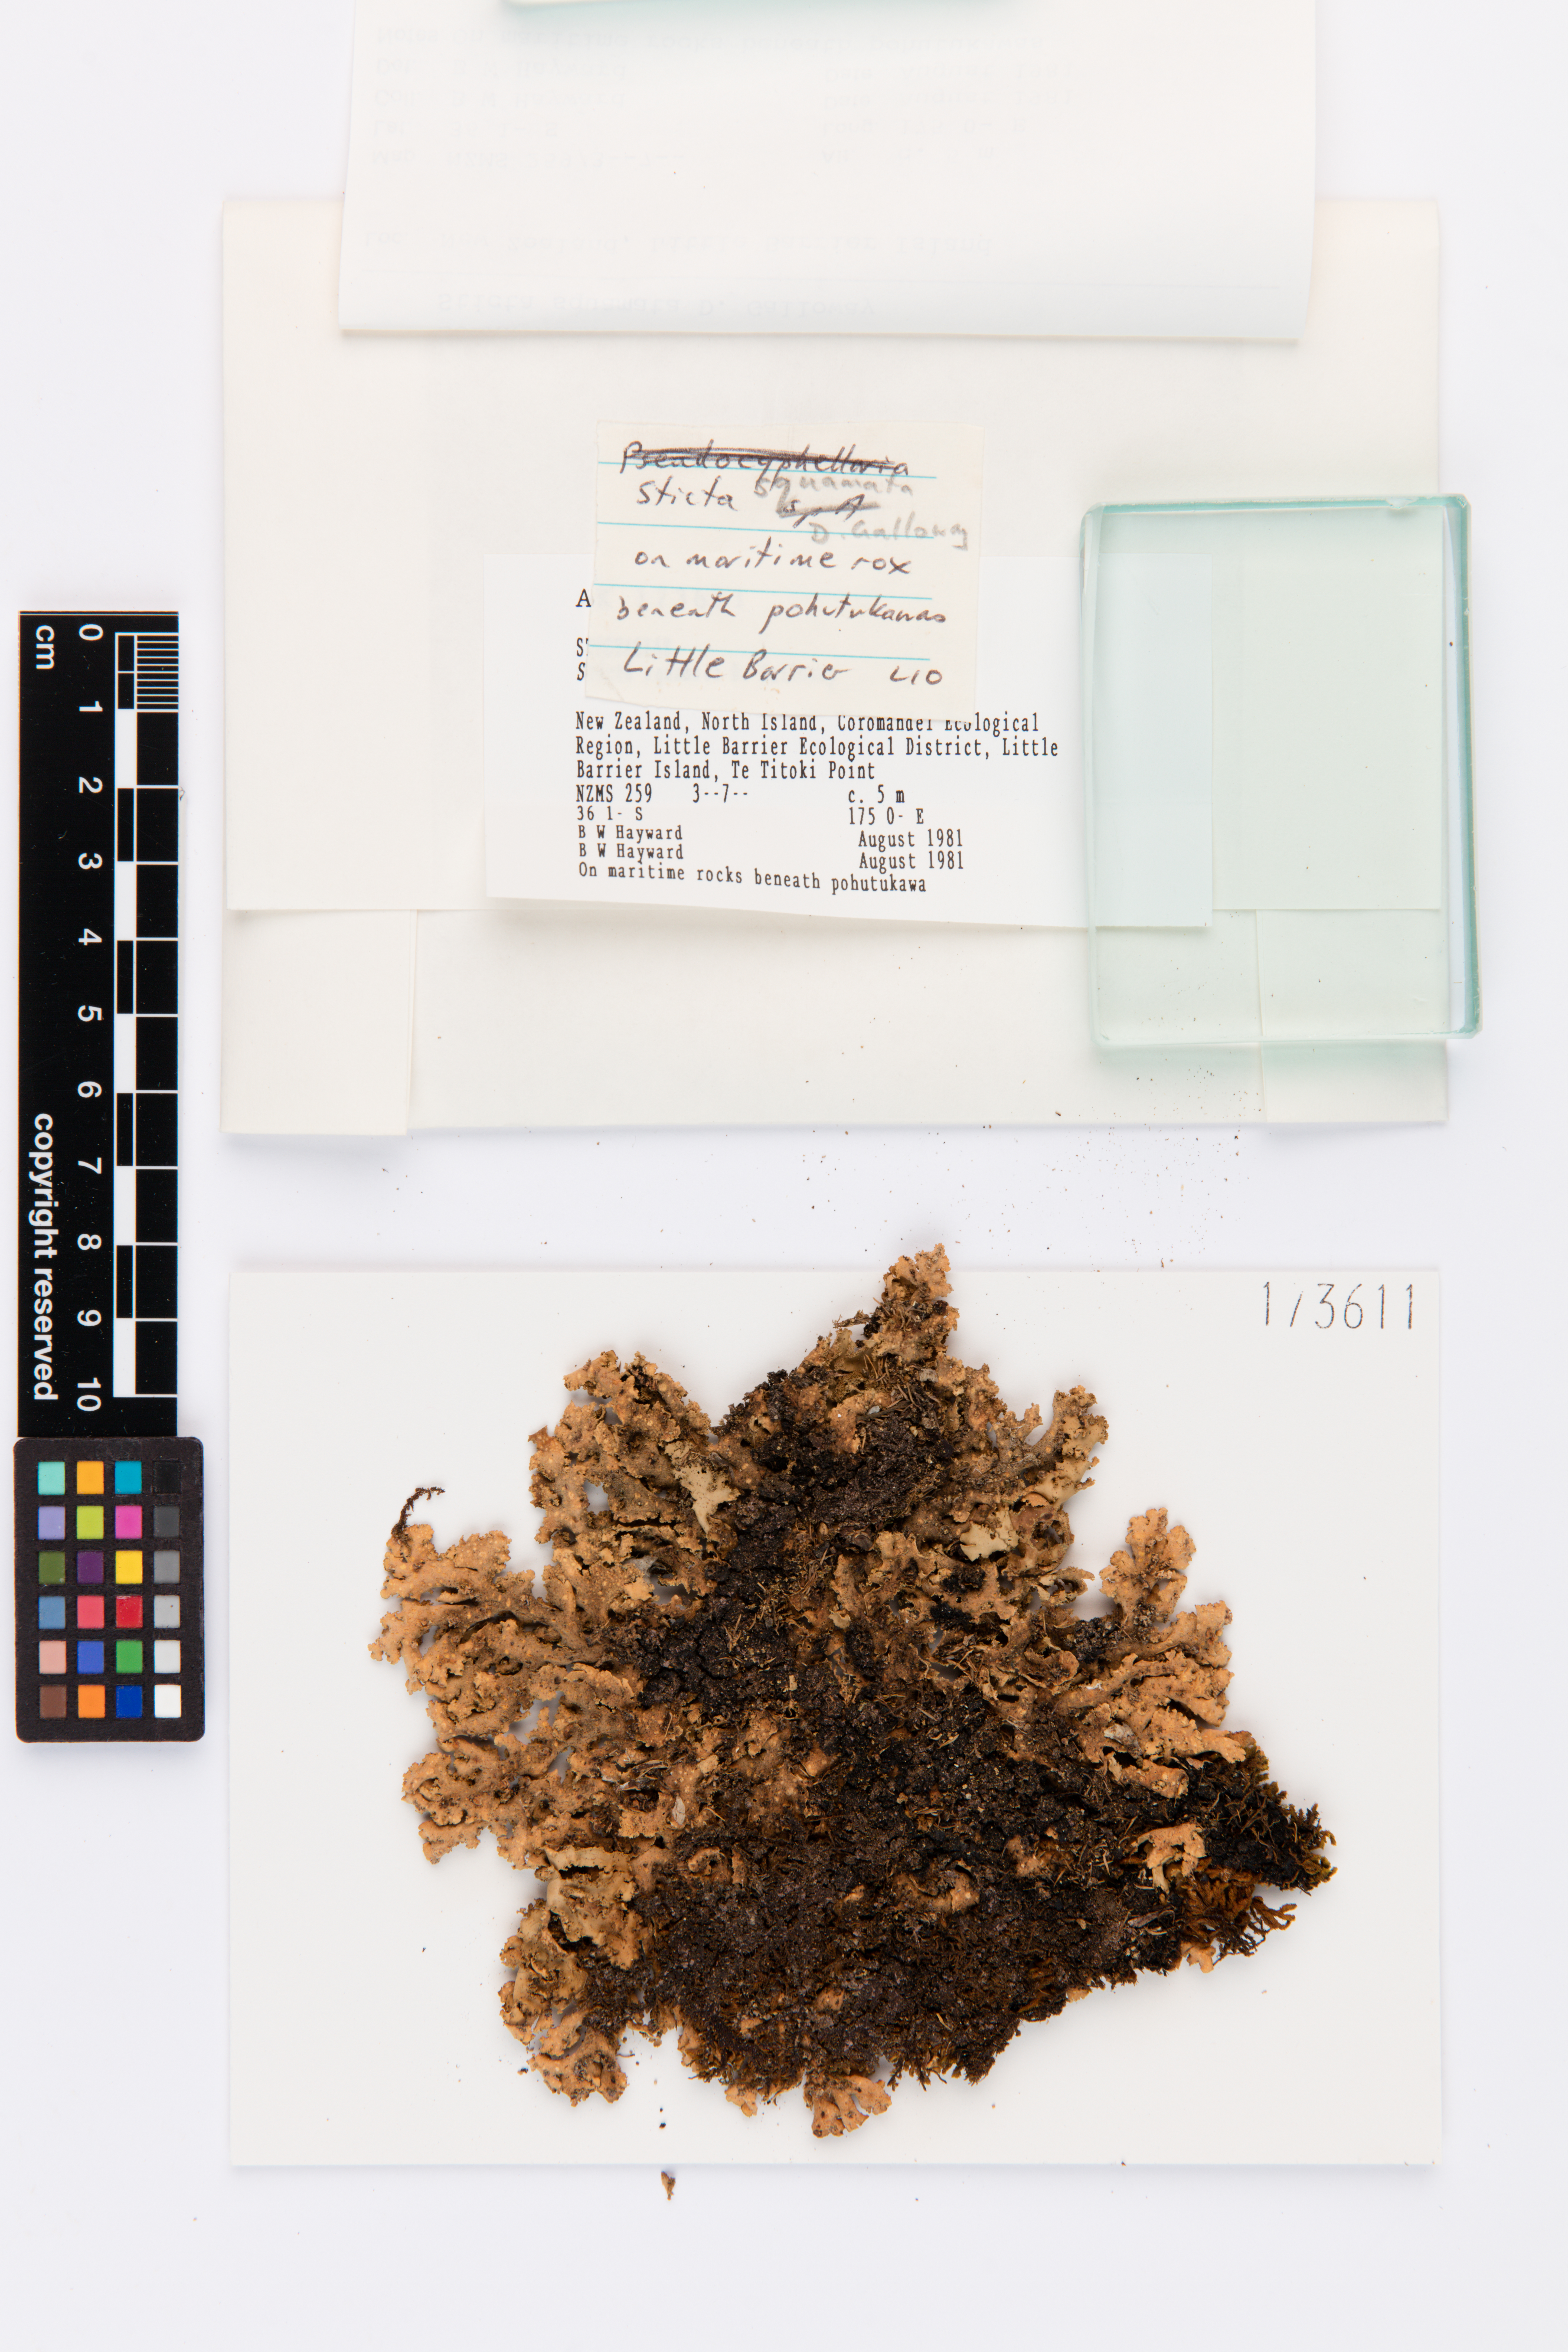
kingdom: Fungi
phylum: Ascomycota
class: Lecanoromycetes
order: Peltigerales
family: Lobariaceae
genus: Sticta
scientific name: Sticta squamata
